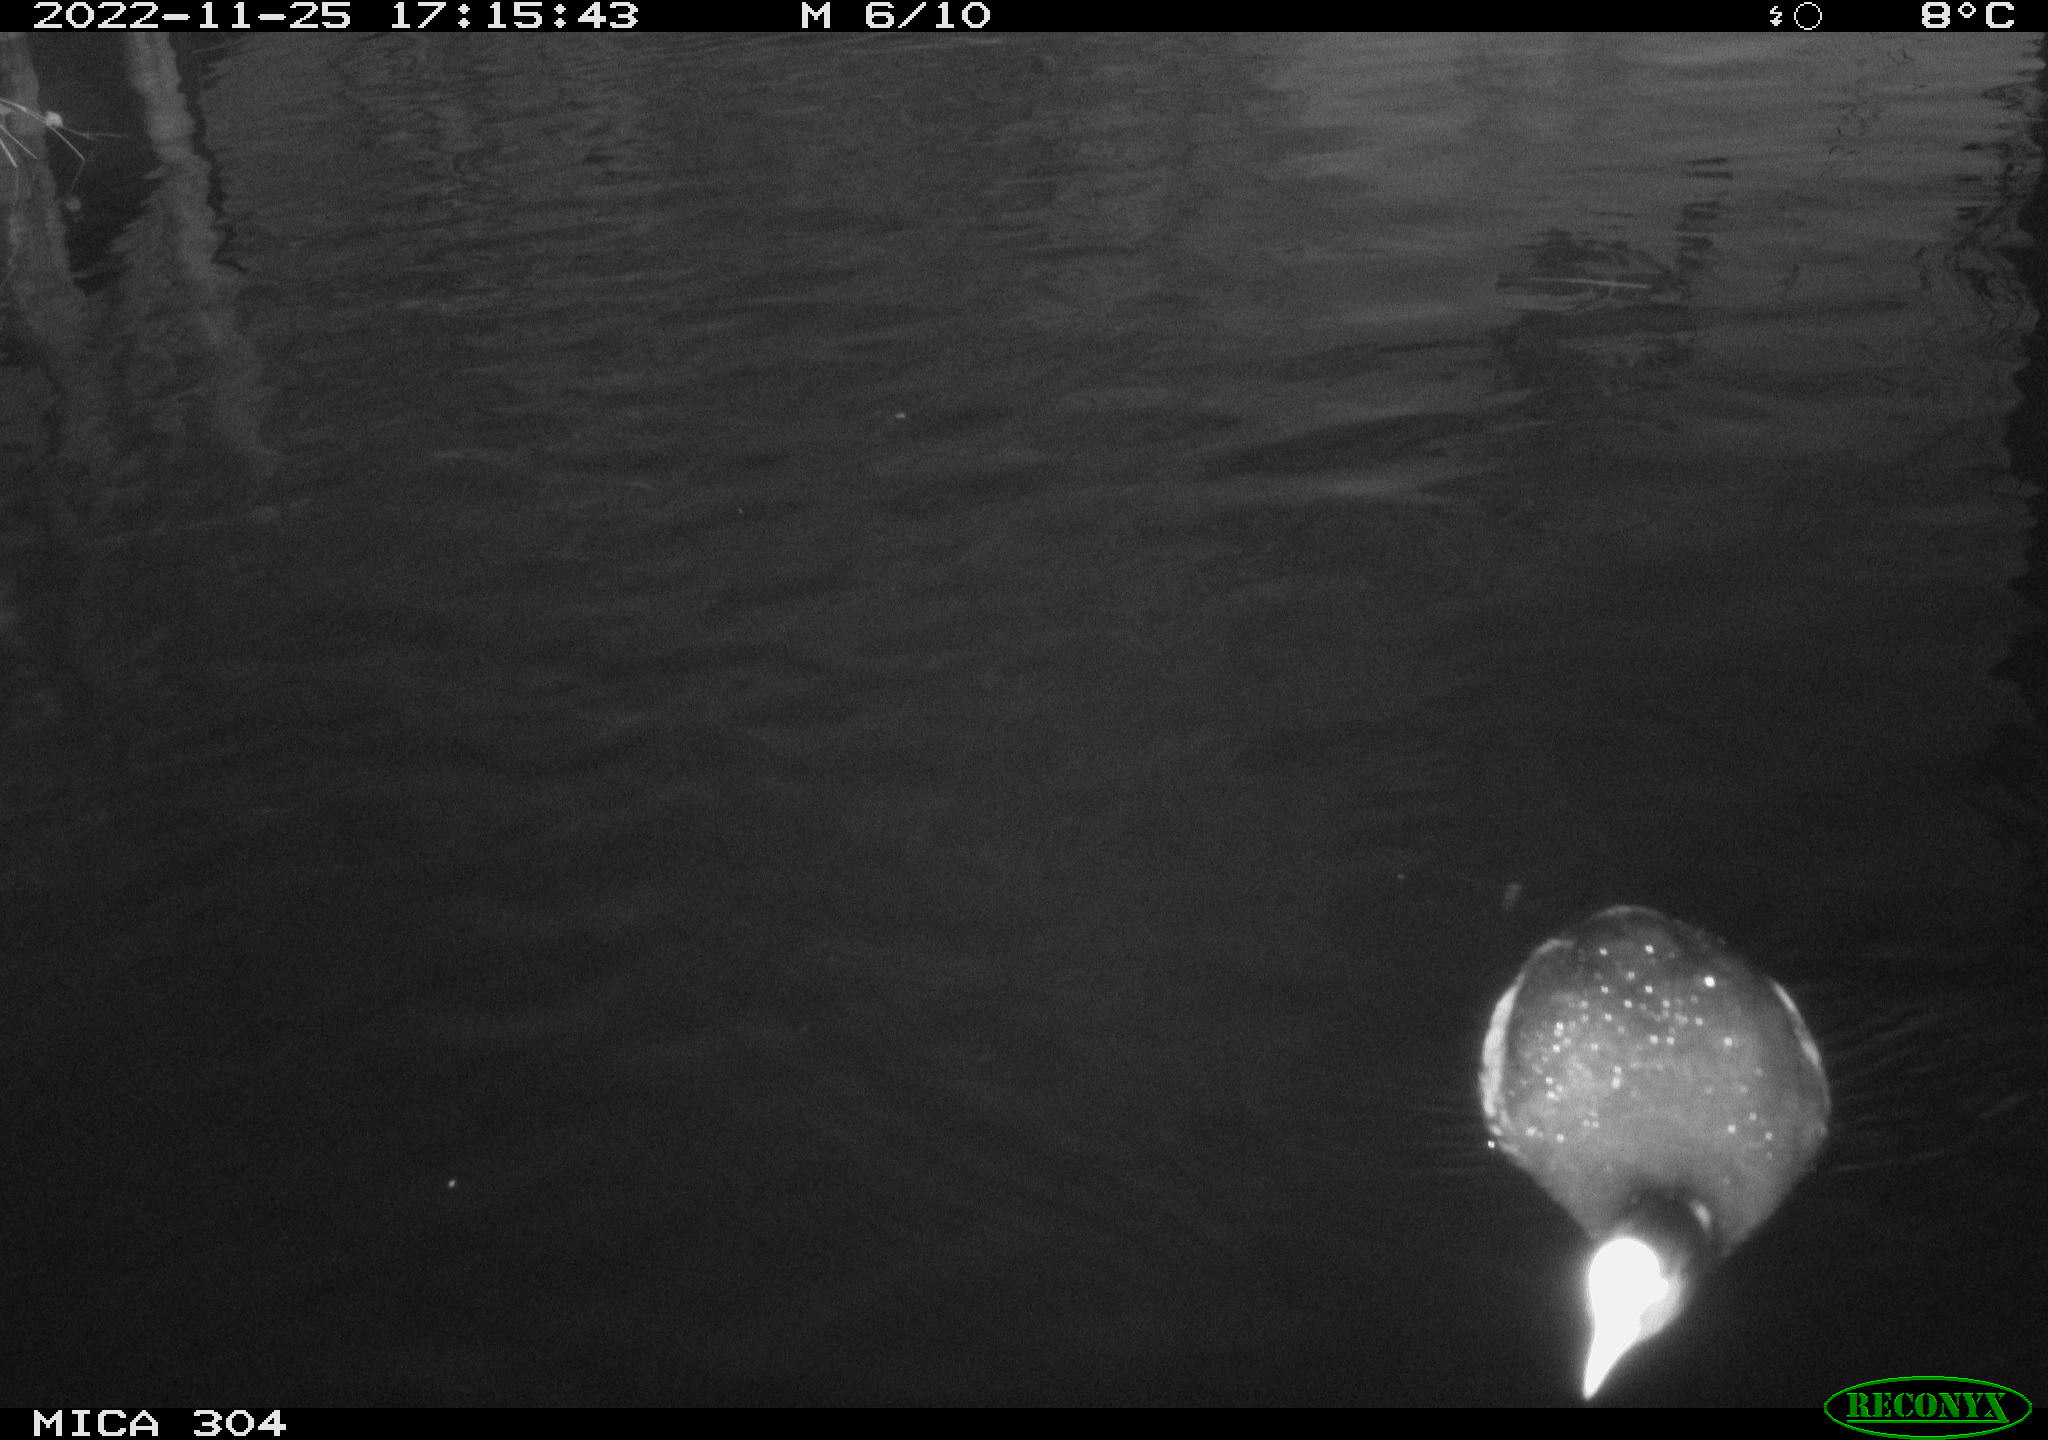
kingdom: Animalia
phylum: Chordata
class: Aves
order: Gruiformes
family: Rallidae
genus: Fulica
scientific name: Fulica atra
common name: Eurasian coot
